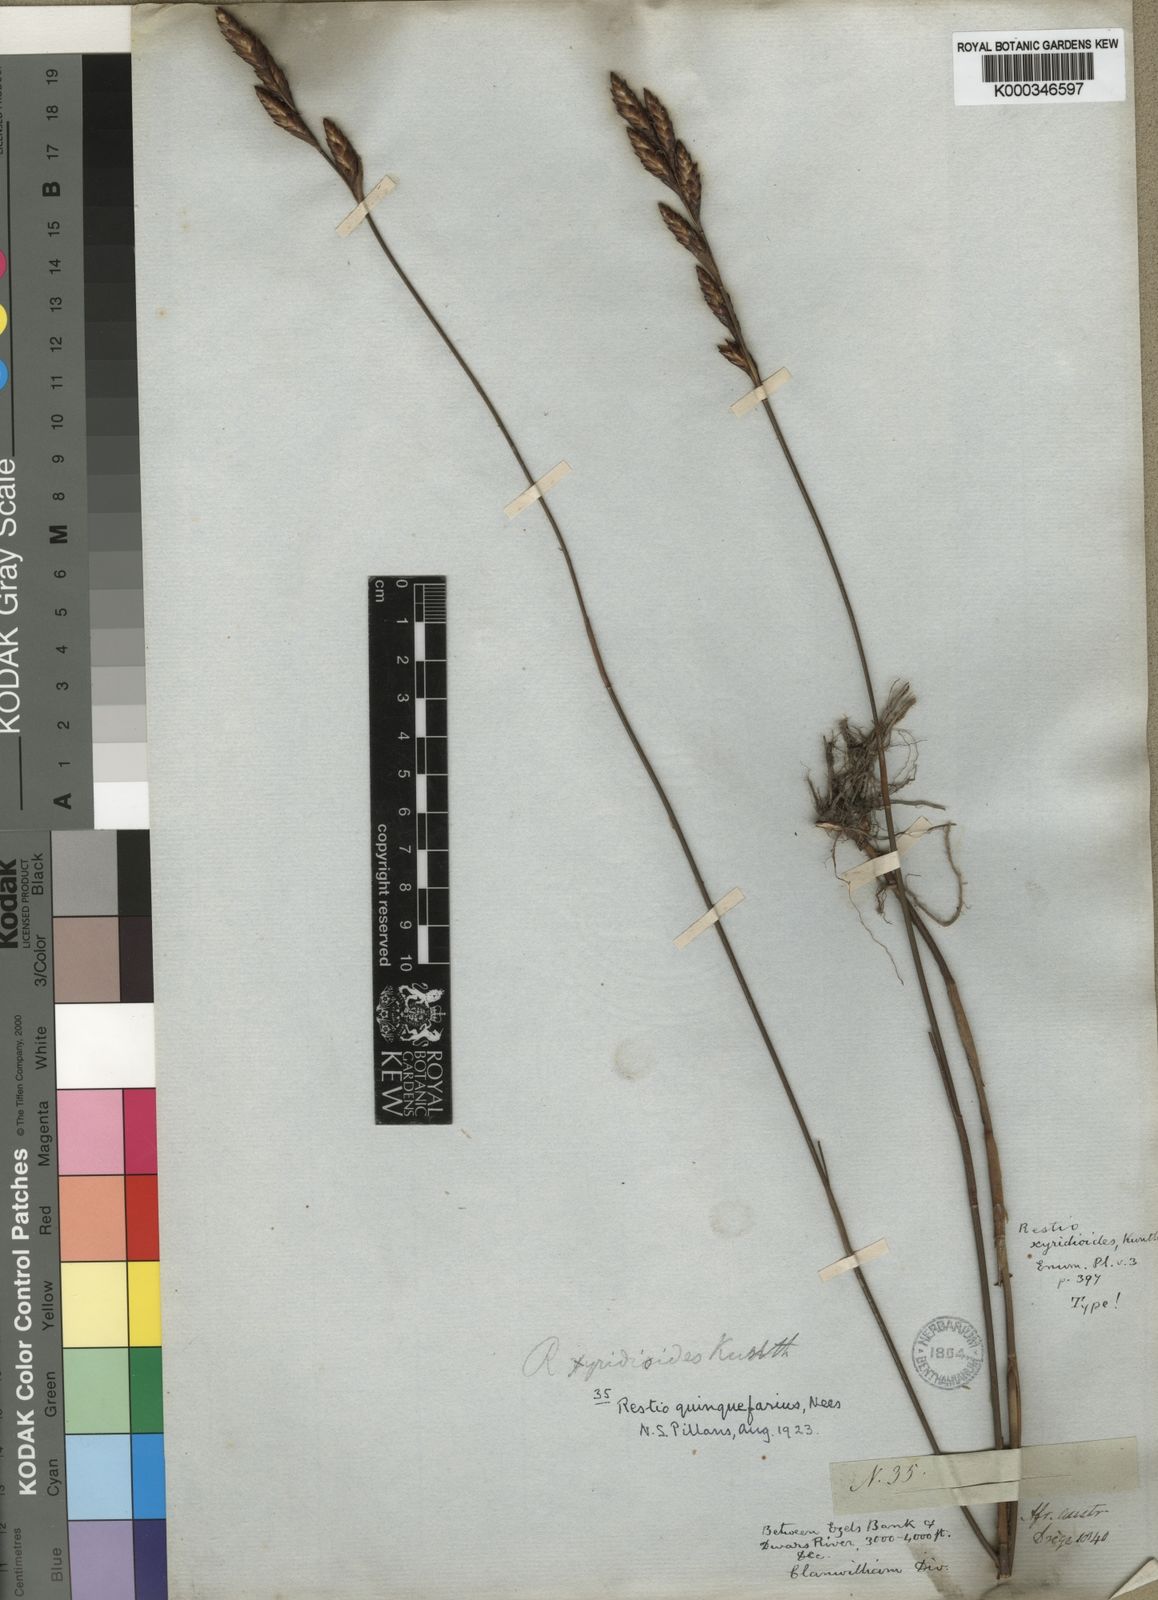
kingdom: Plantae
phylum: Tracheophyta
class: Liliopsida
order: Poales
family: Restionaceae
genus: Restio
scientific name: Restio quinquefarius
